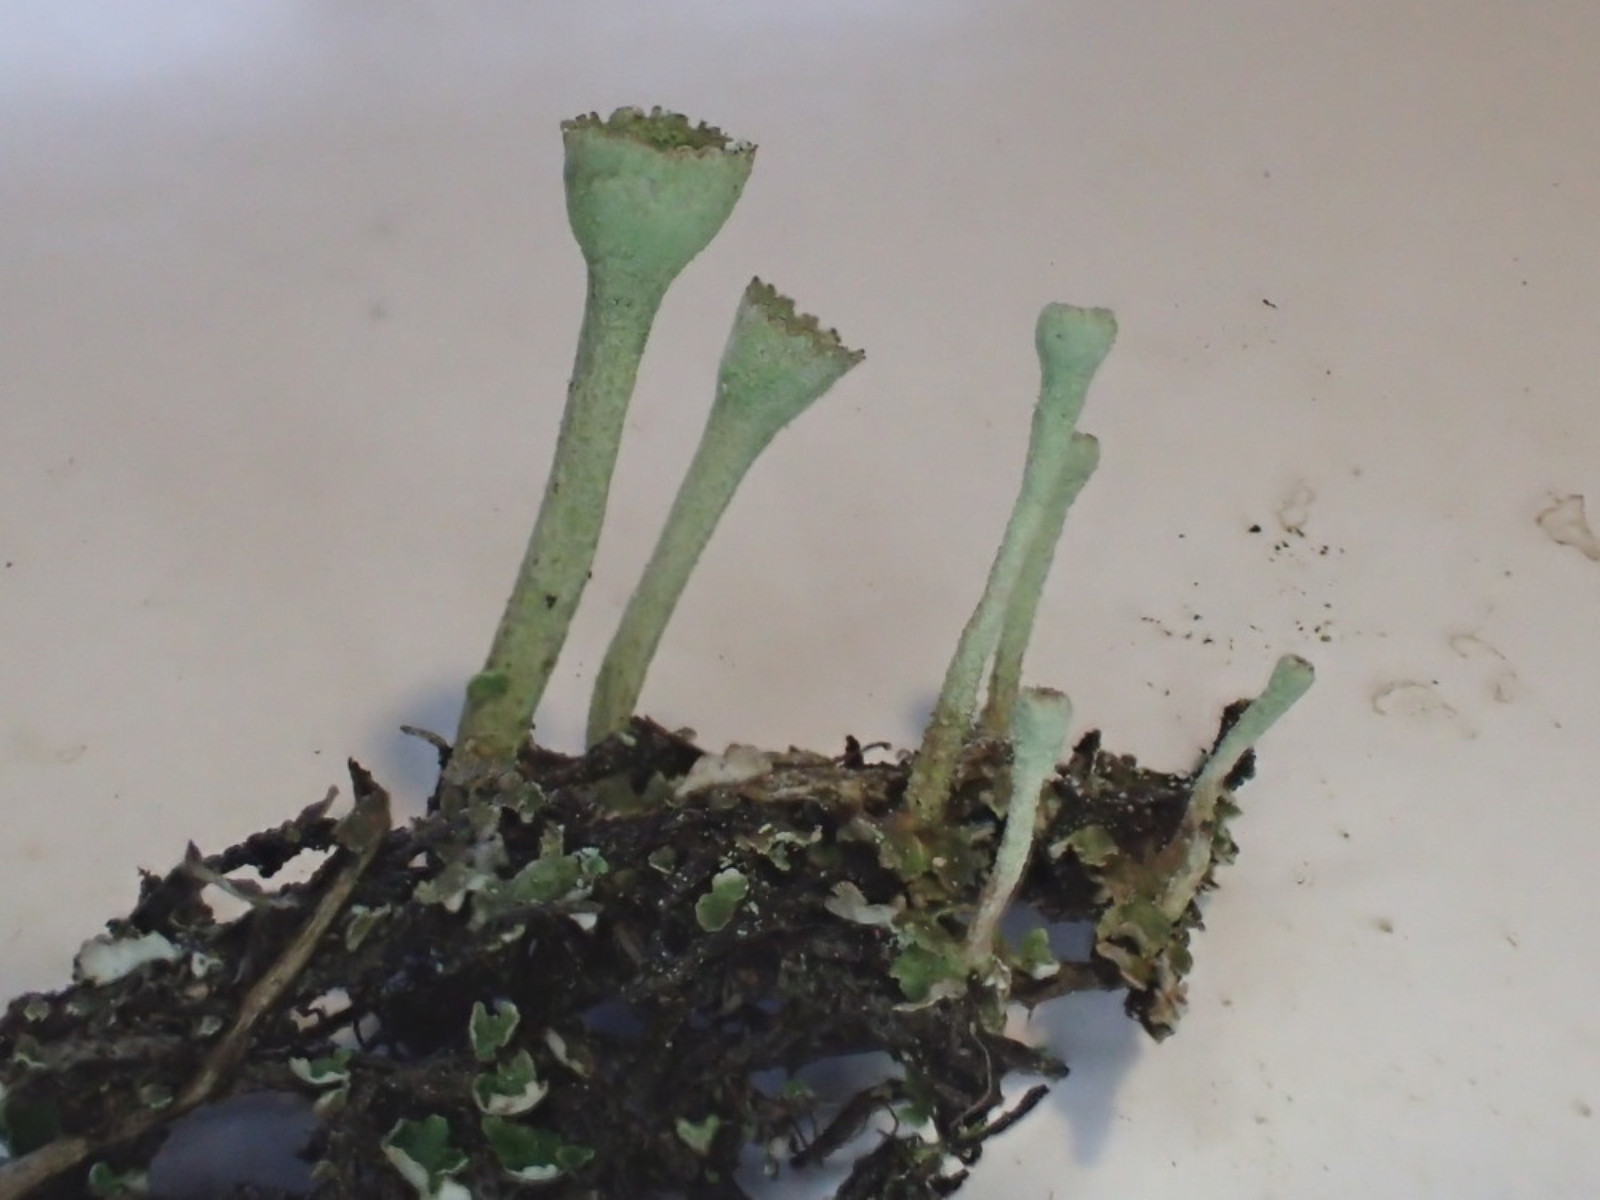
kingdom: Fungi
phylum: Ascomycota
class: Lecanoromycetes
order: Lecanorales
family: Cladoniaceae
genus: Cladonia
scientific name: Cladonia fimbriata
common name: bleggrøn bægerlav
